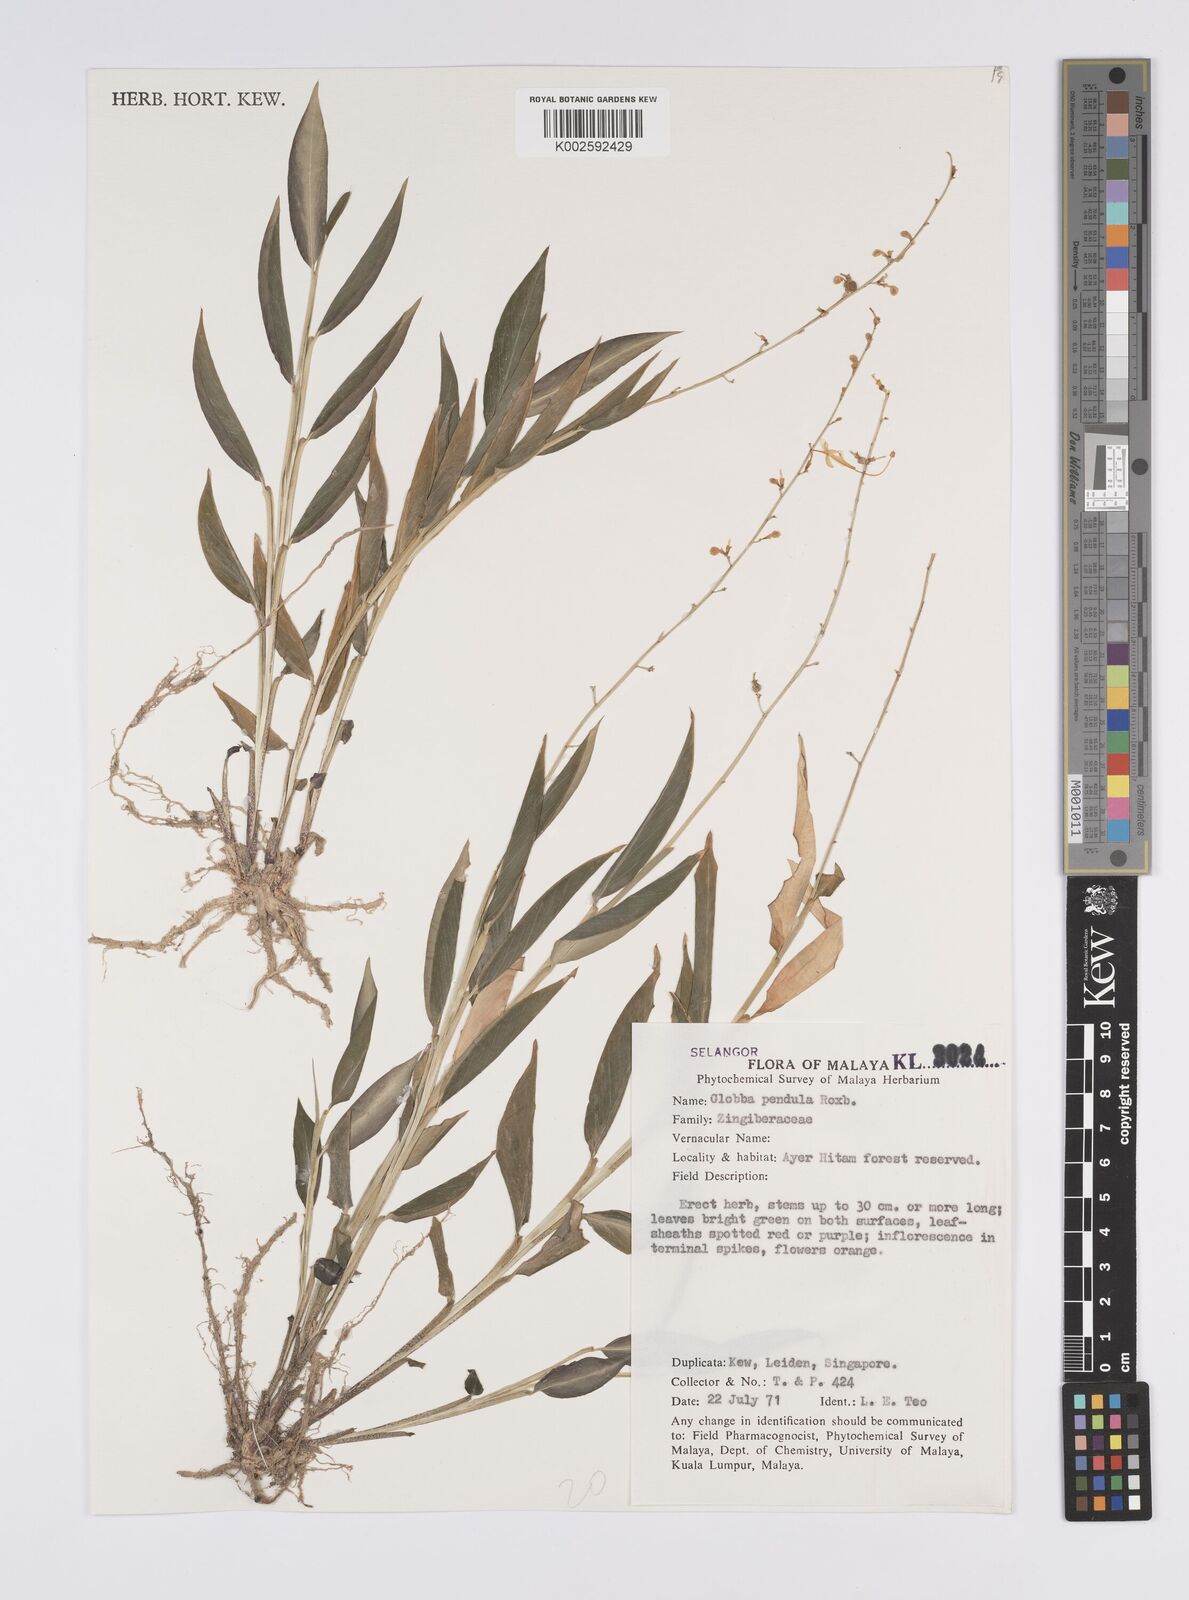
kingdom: Plantae
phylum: Tracheophyta
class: Liliopsida
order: Zingiberales
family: Zingiberaceae
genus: Globba
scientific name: Globba pendula
